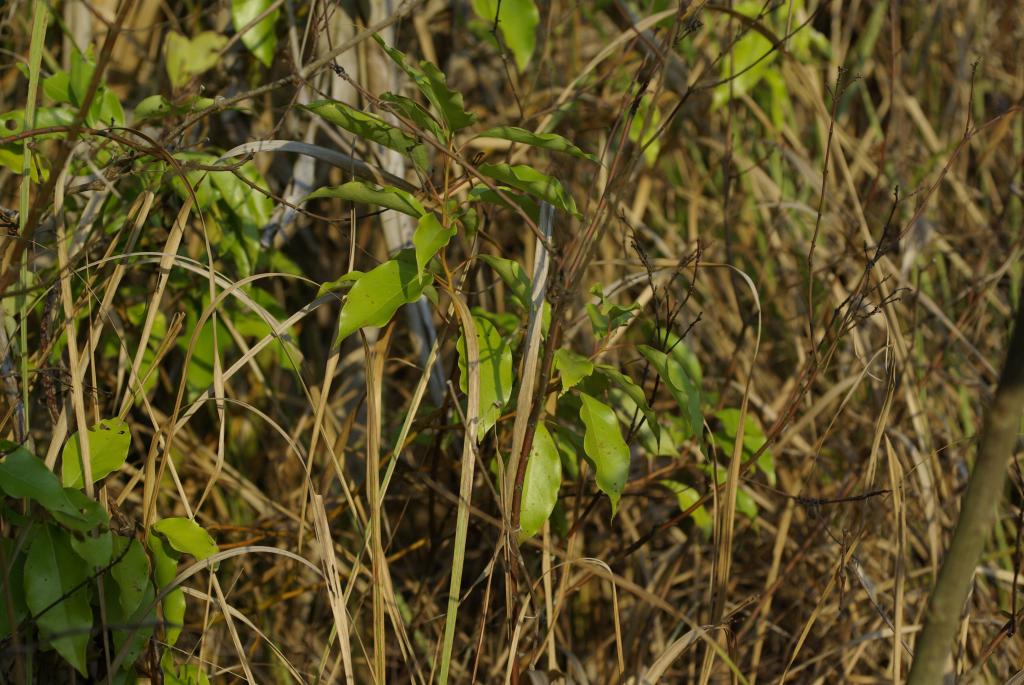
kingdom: Plantae
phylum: Tracheophyta
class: Magnoliopsida
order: Laurales
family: Lauraceae
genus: Cinnamomum
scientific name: Cinnamomum camphora
